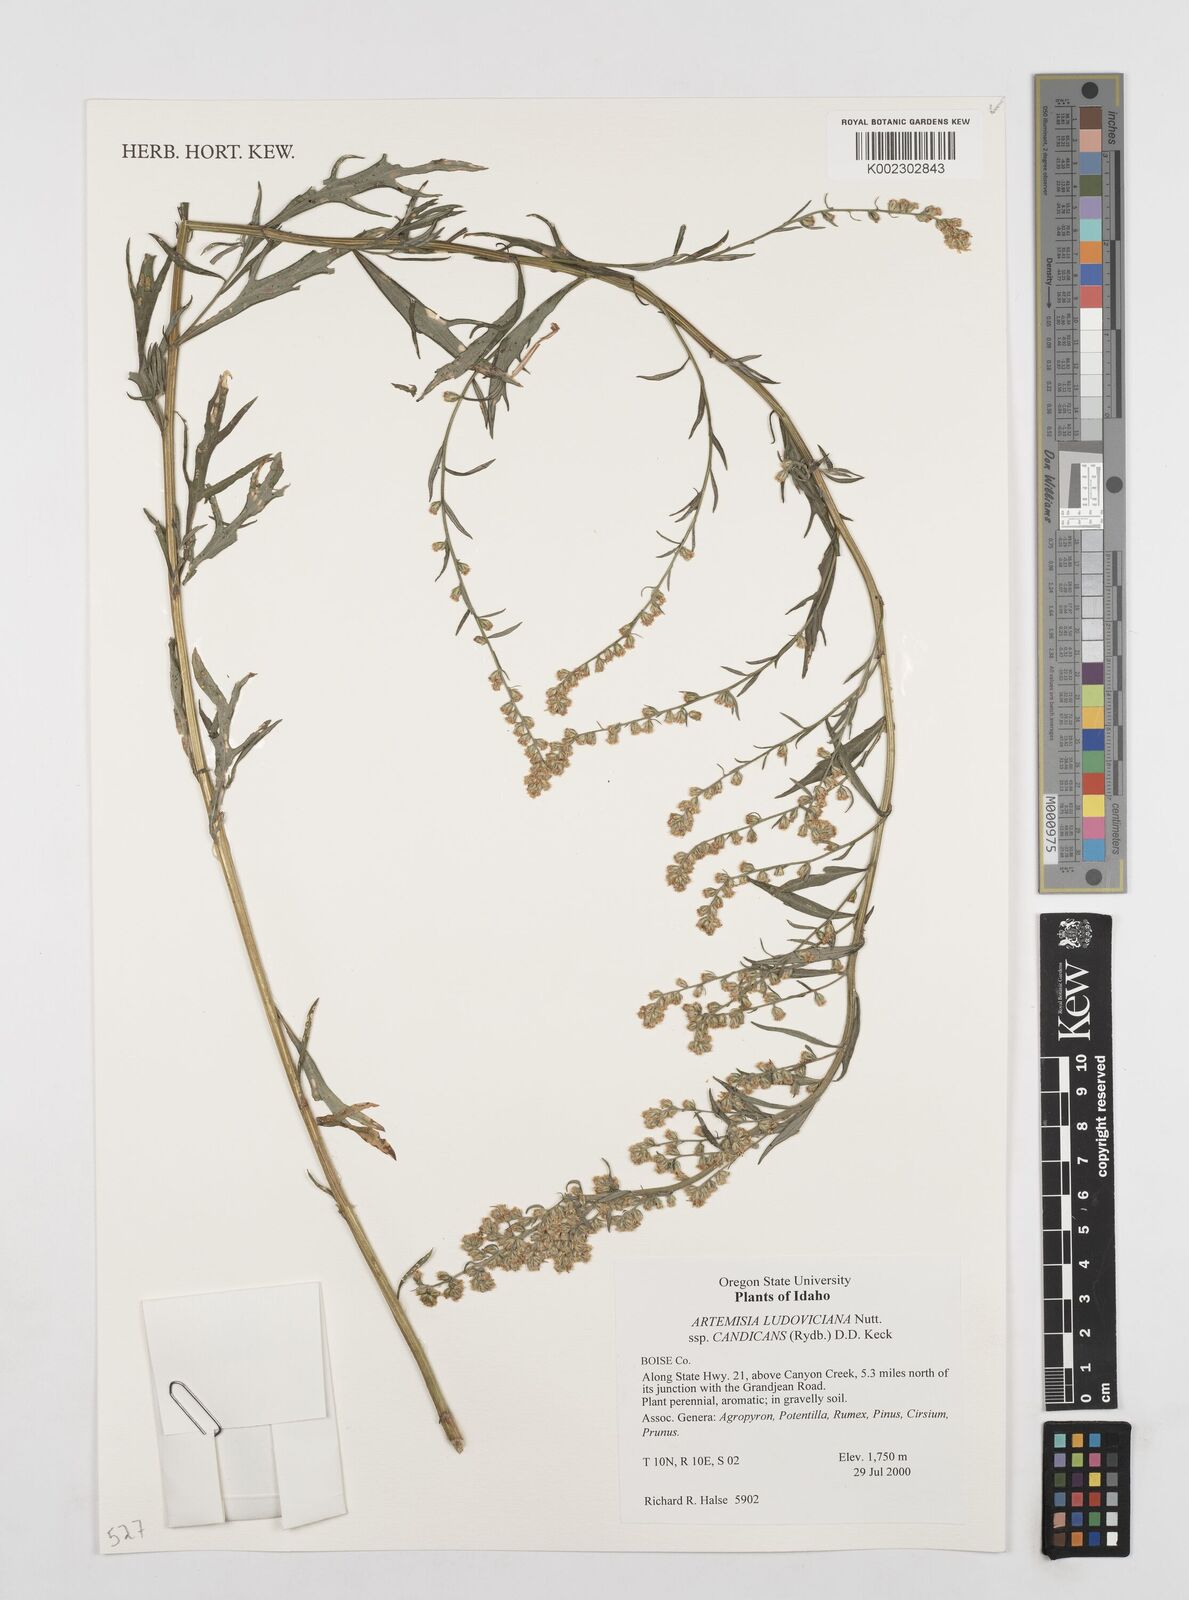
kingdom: Plantae
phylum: Tracheophyta
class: Magnoliopsida
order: Asterales
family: Asteraceae
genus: Artemisia
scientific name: Artemisia ludoviciana
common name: Western mugwort
